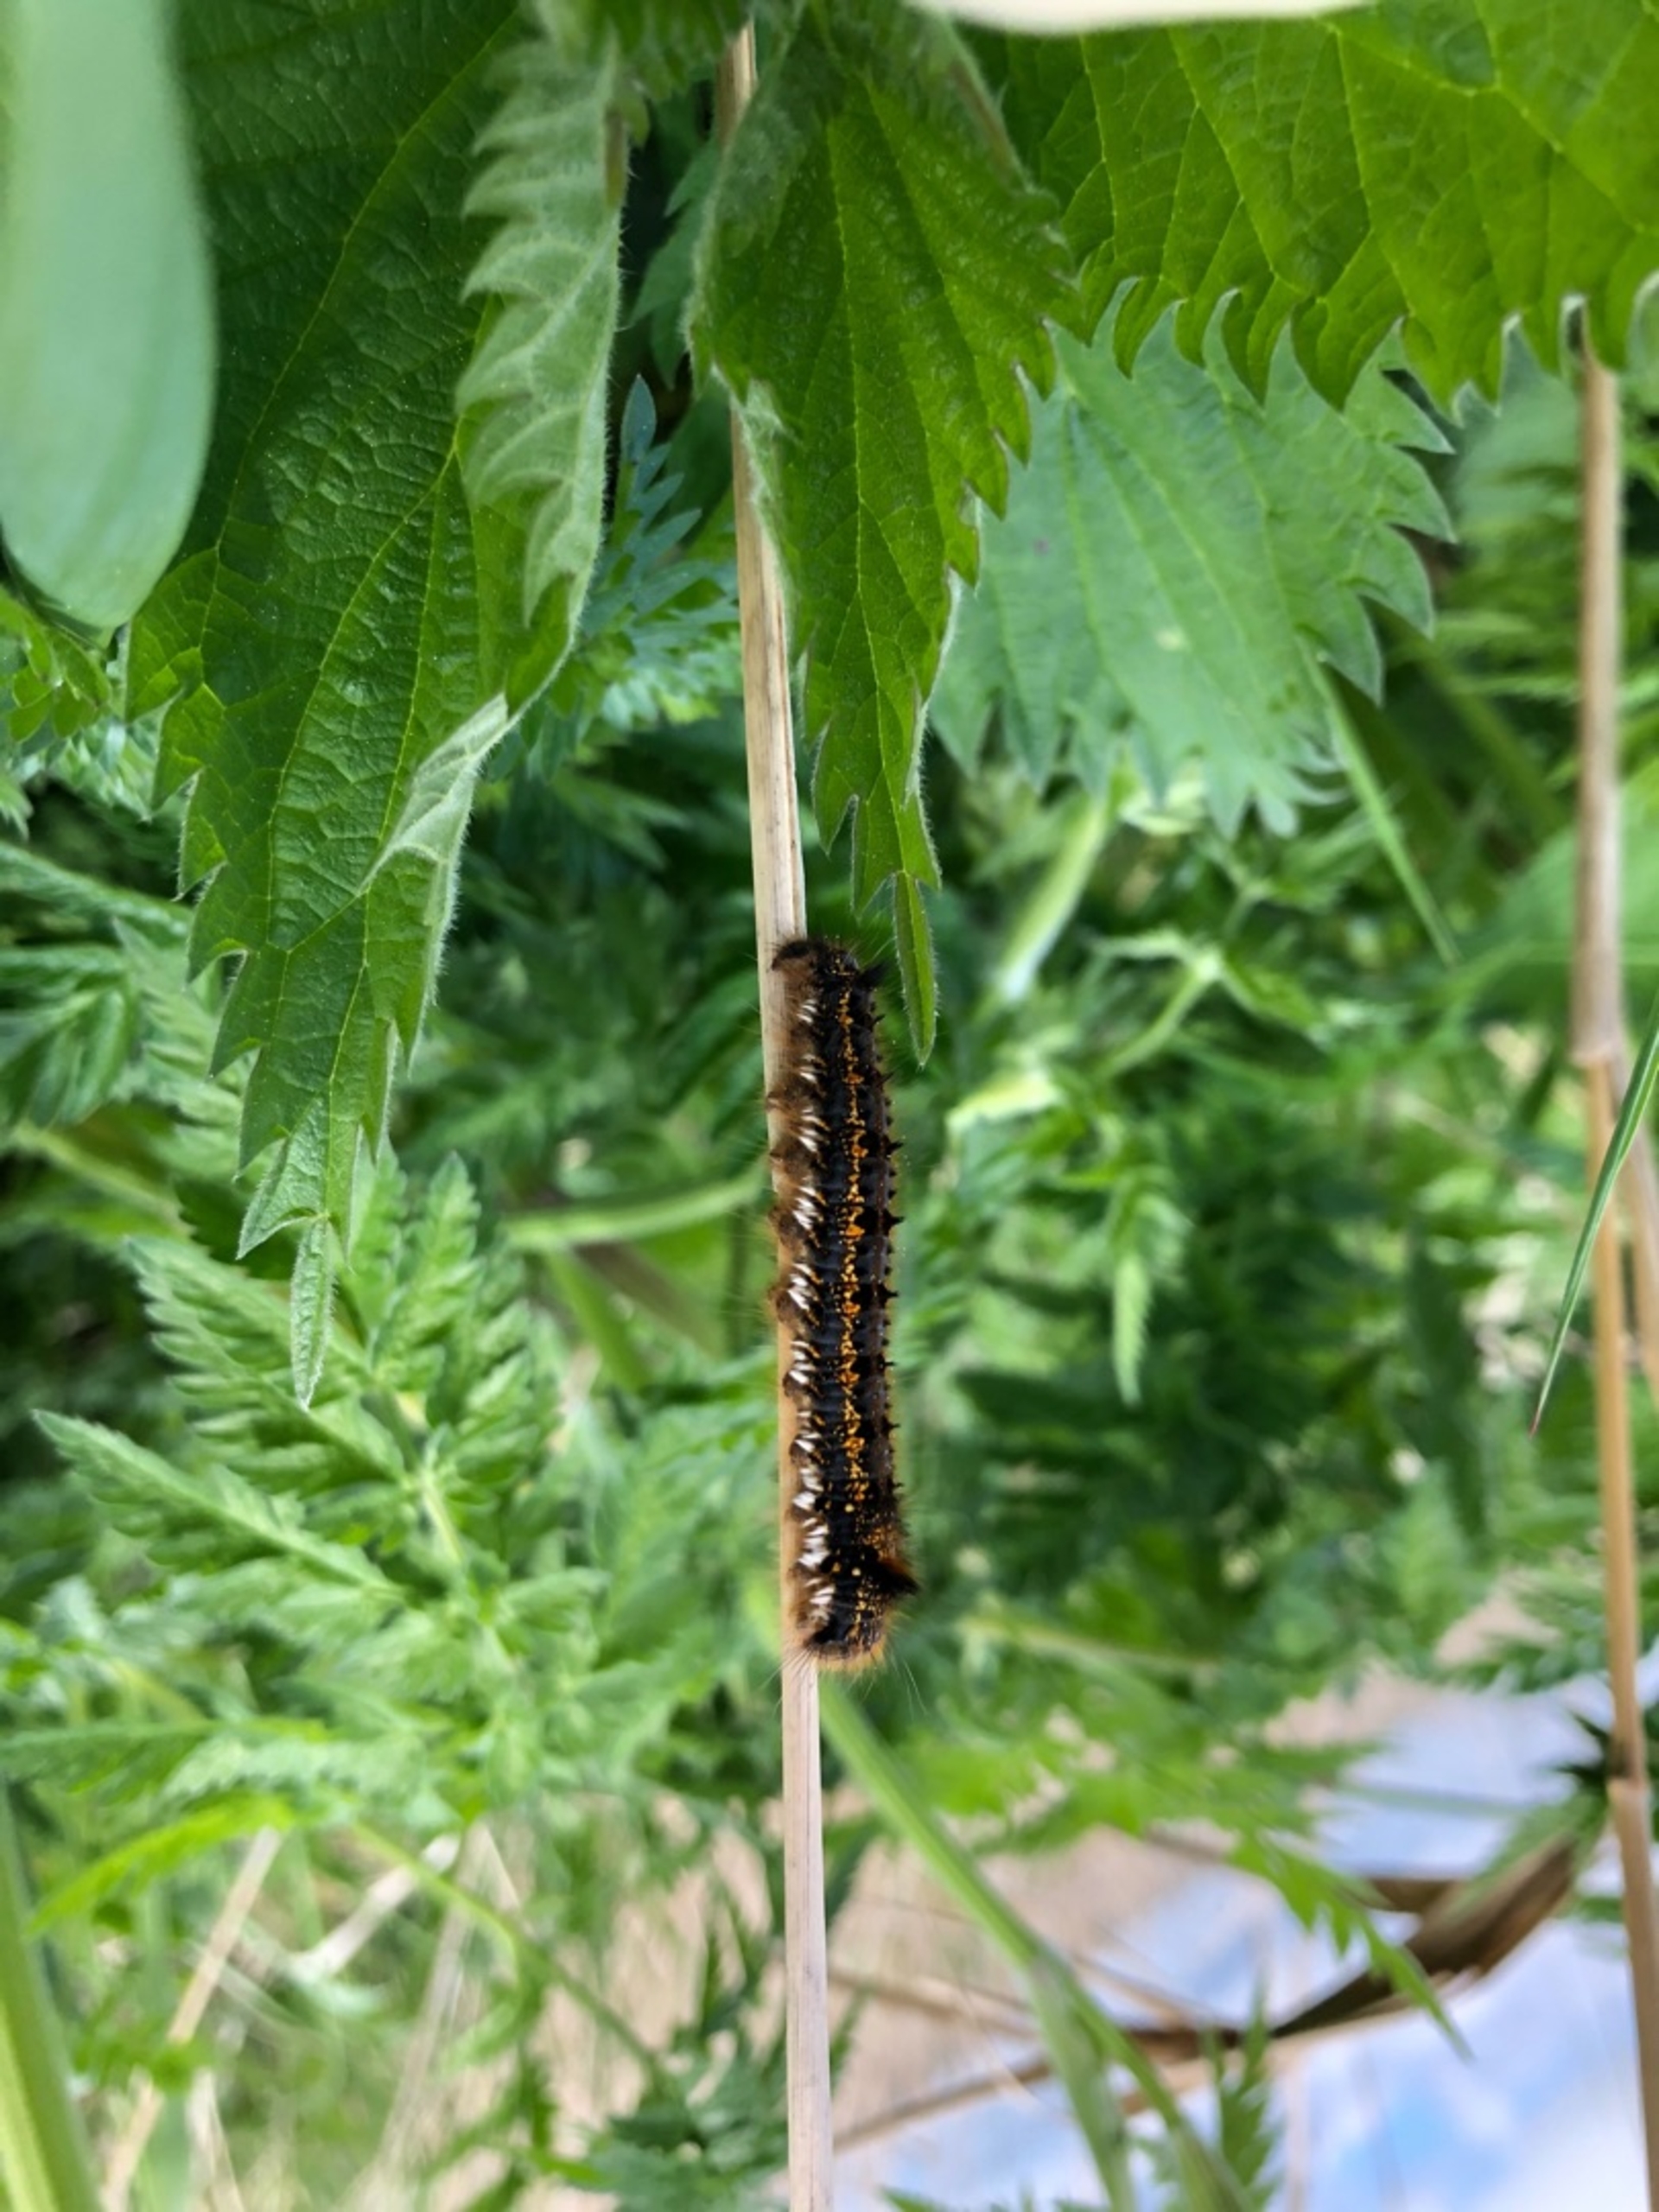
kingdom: Animalia
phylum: Arthropoda
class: Insecta
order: Lepidoptera
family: Lasiocampidae
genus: Euthrix
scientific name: Euthrix potatoria
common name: Græsspinder
